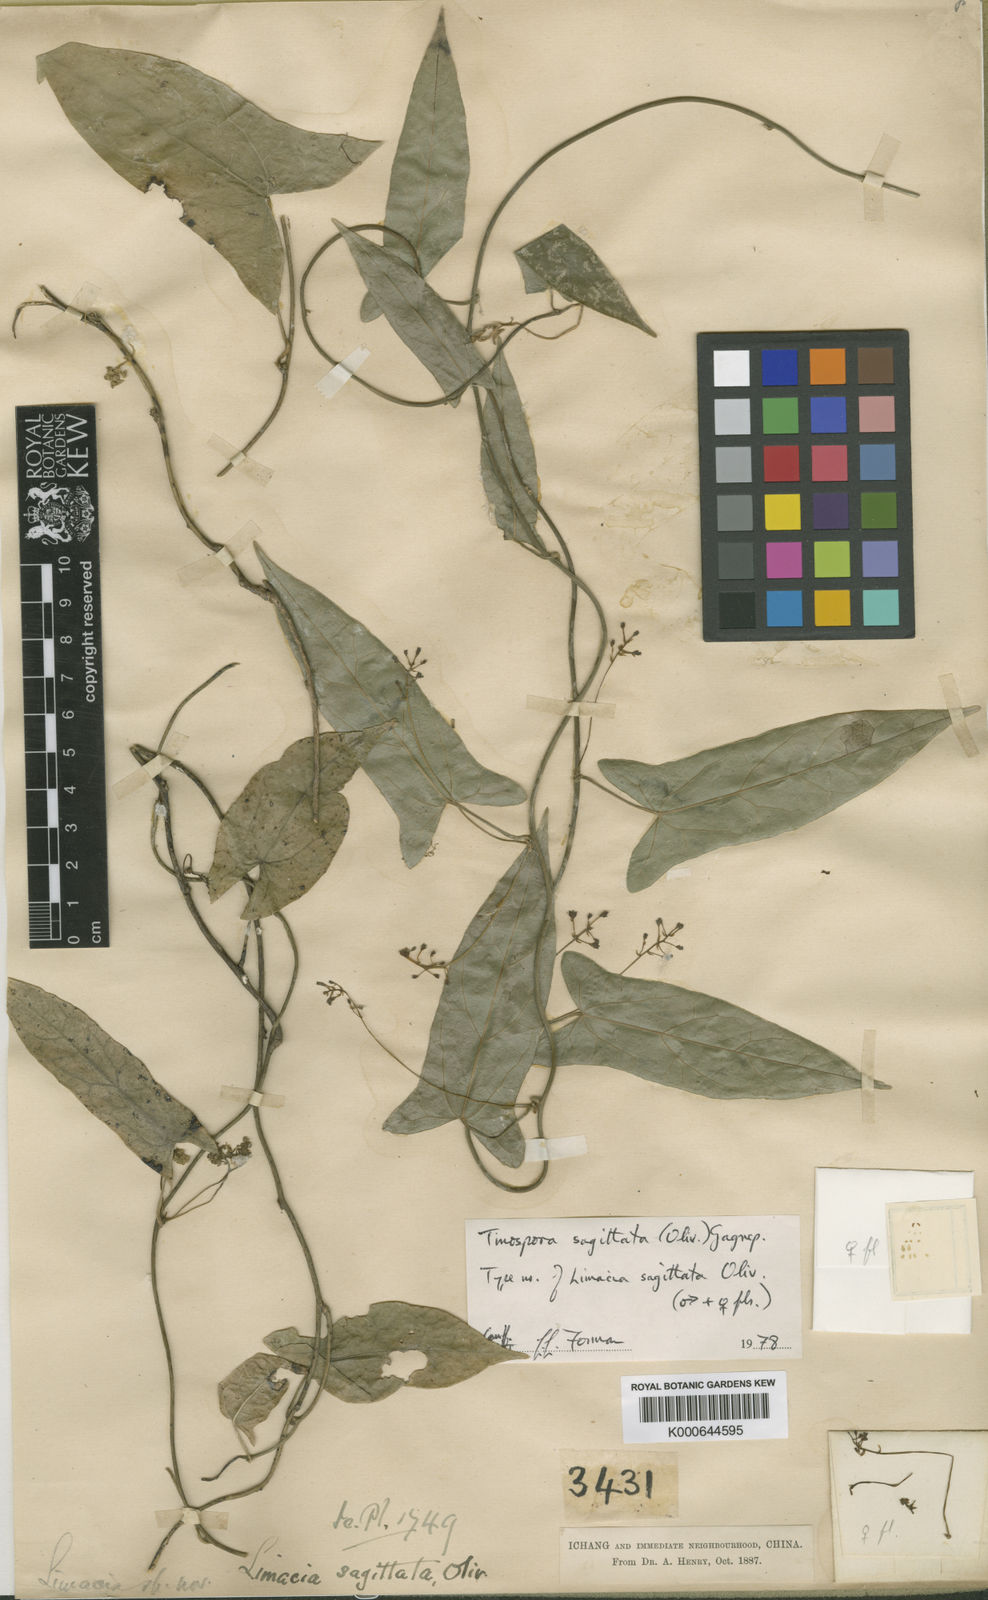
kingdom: Plantae
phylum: Tracheophyta
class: Magnoliopsida
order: Ranunculales
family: Menispermaceae
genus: Paratinospora
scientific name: Paratinospora sagittata
